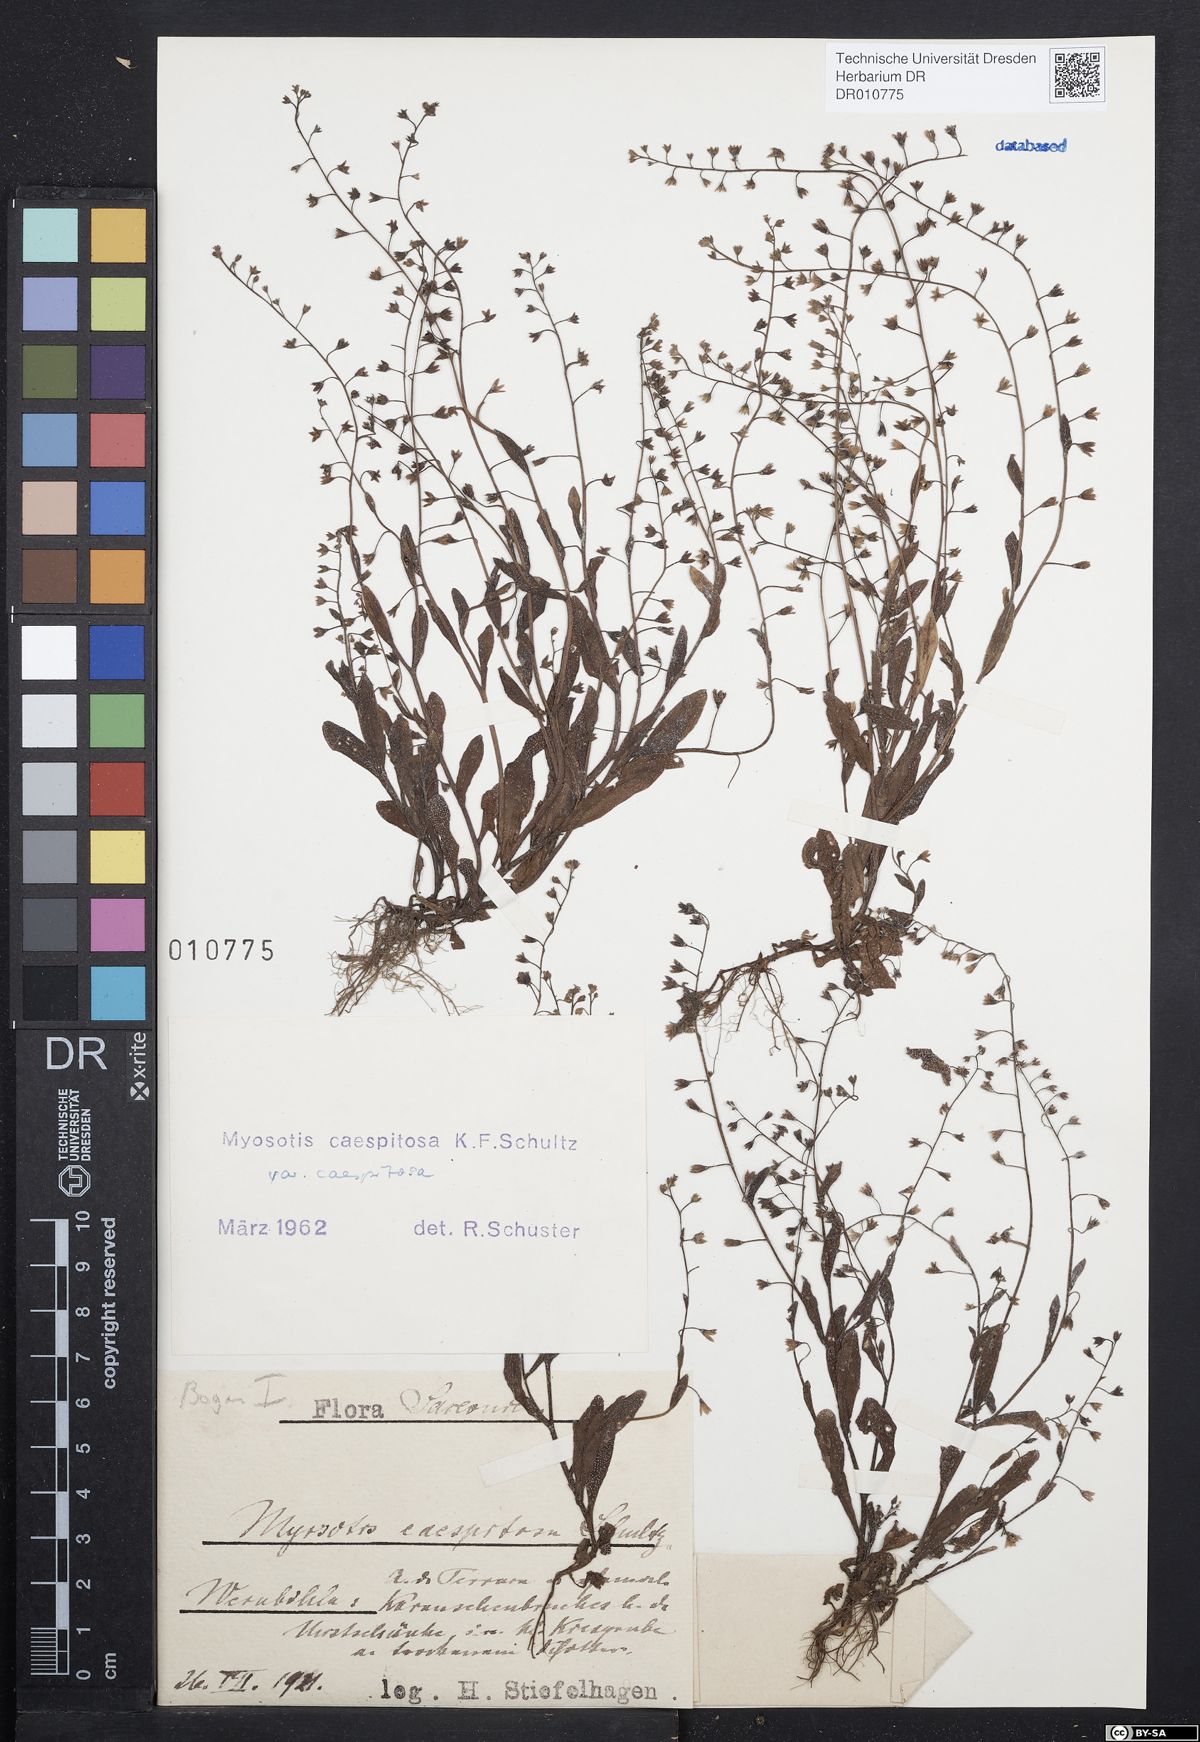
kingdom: Plantae
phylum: Tracheophyta
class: Magnoliopsida
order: Boraginales
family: Boraginaceae
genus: Myosotis
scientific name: Myosotis laxa
